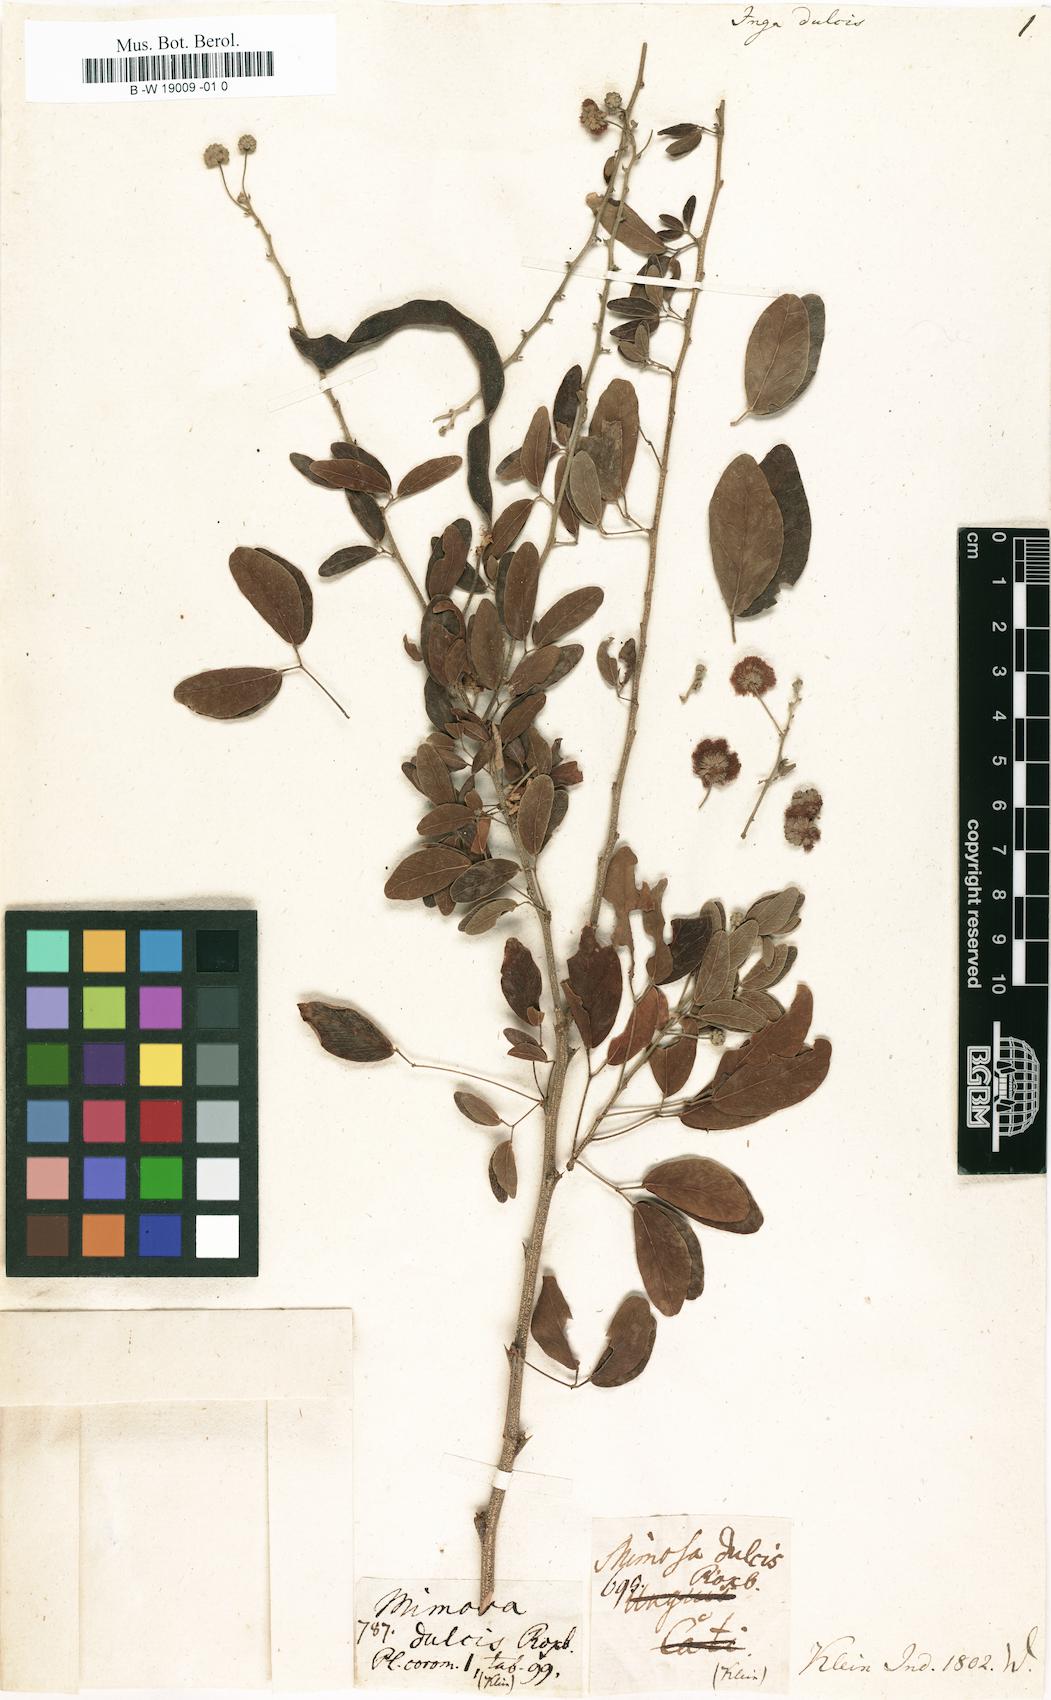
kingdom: Plantae
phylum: Tracheophyta
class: Magnoliopsida
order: Fabales
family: Fabaceae
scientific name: Fabaceae
